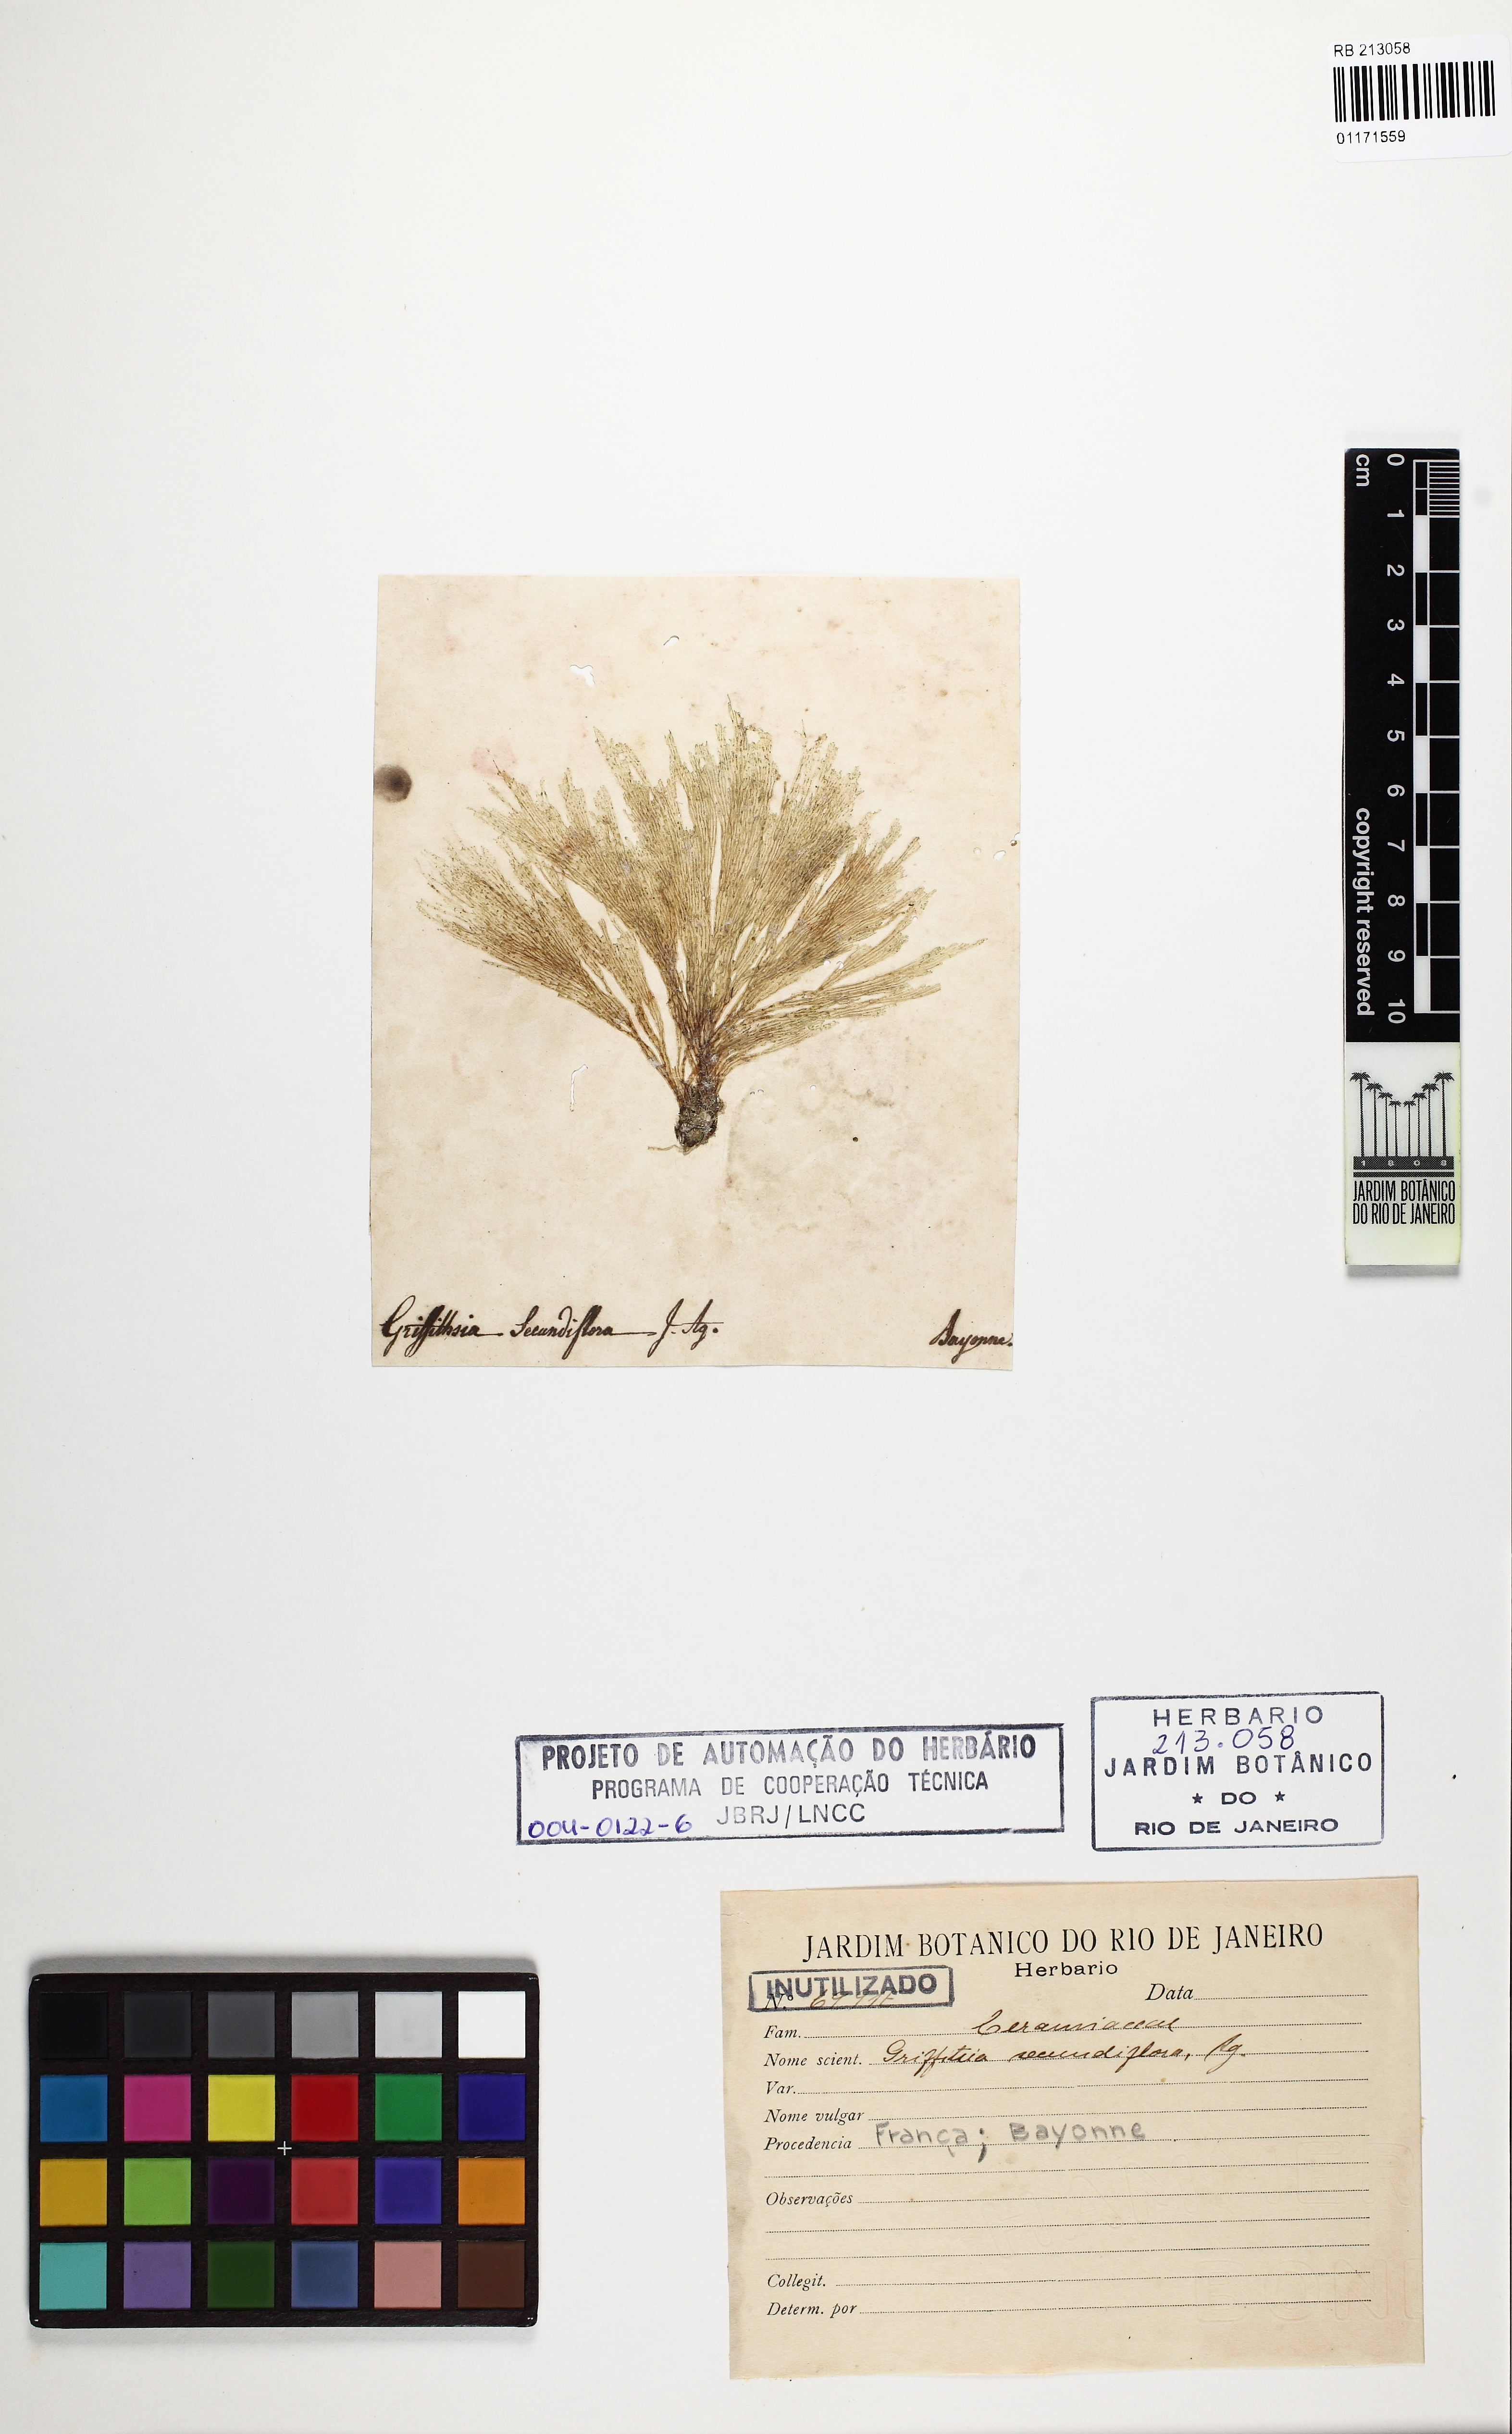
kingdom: Plantae
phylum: Rhodophyta
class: Florideophyceae
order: Ceramiales
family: Ceramiaceae
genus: Bornetia
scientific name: Bornetia secundiflora
